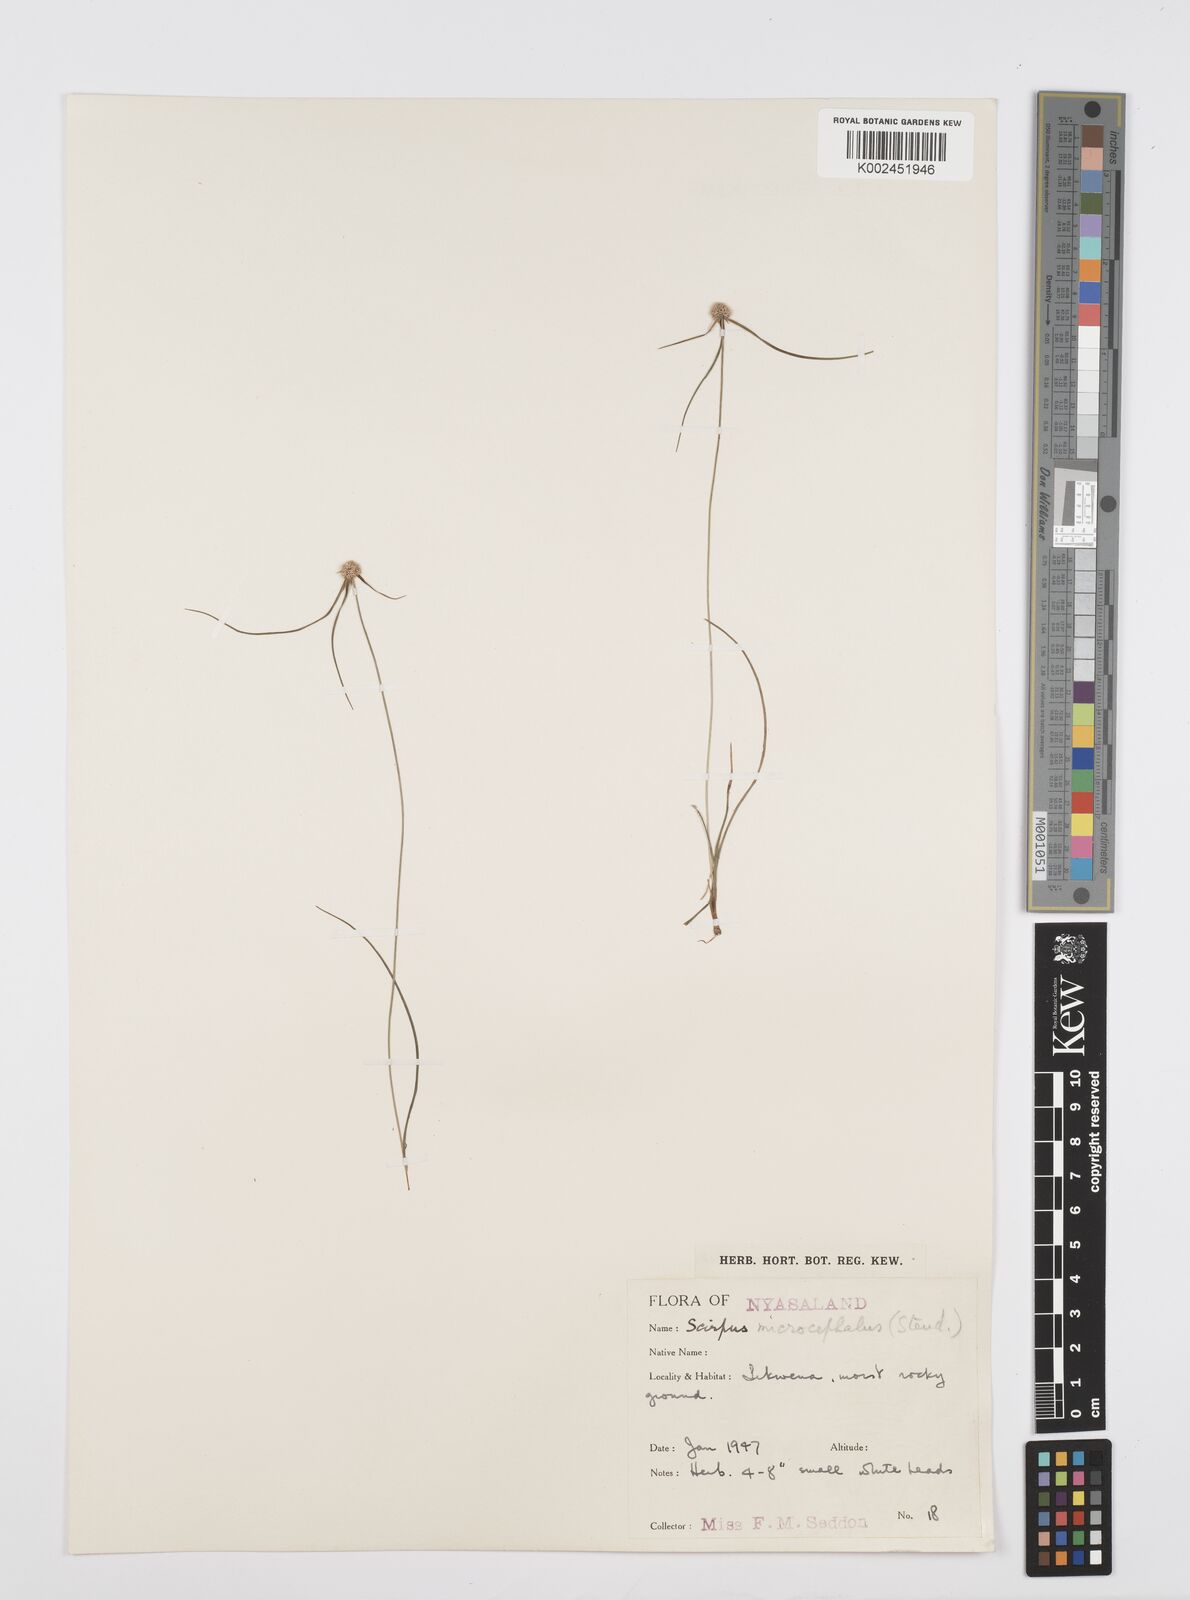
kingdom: Plantae
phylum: Tracheophyta
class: Liliopsida
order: Poales
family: Cyperaceae
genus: Cyperus
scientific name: Cyperus microcephalus
